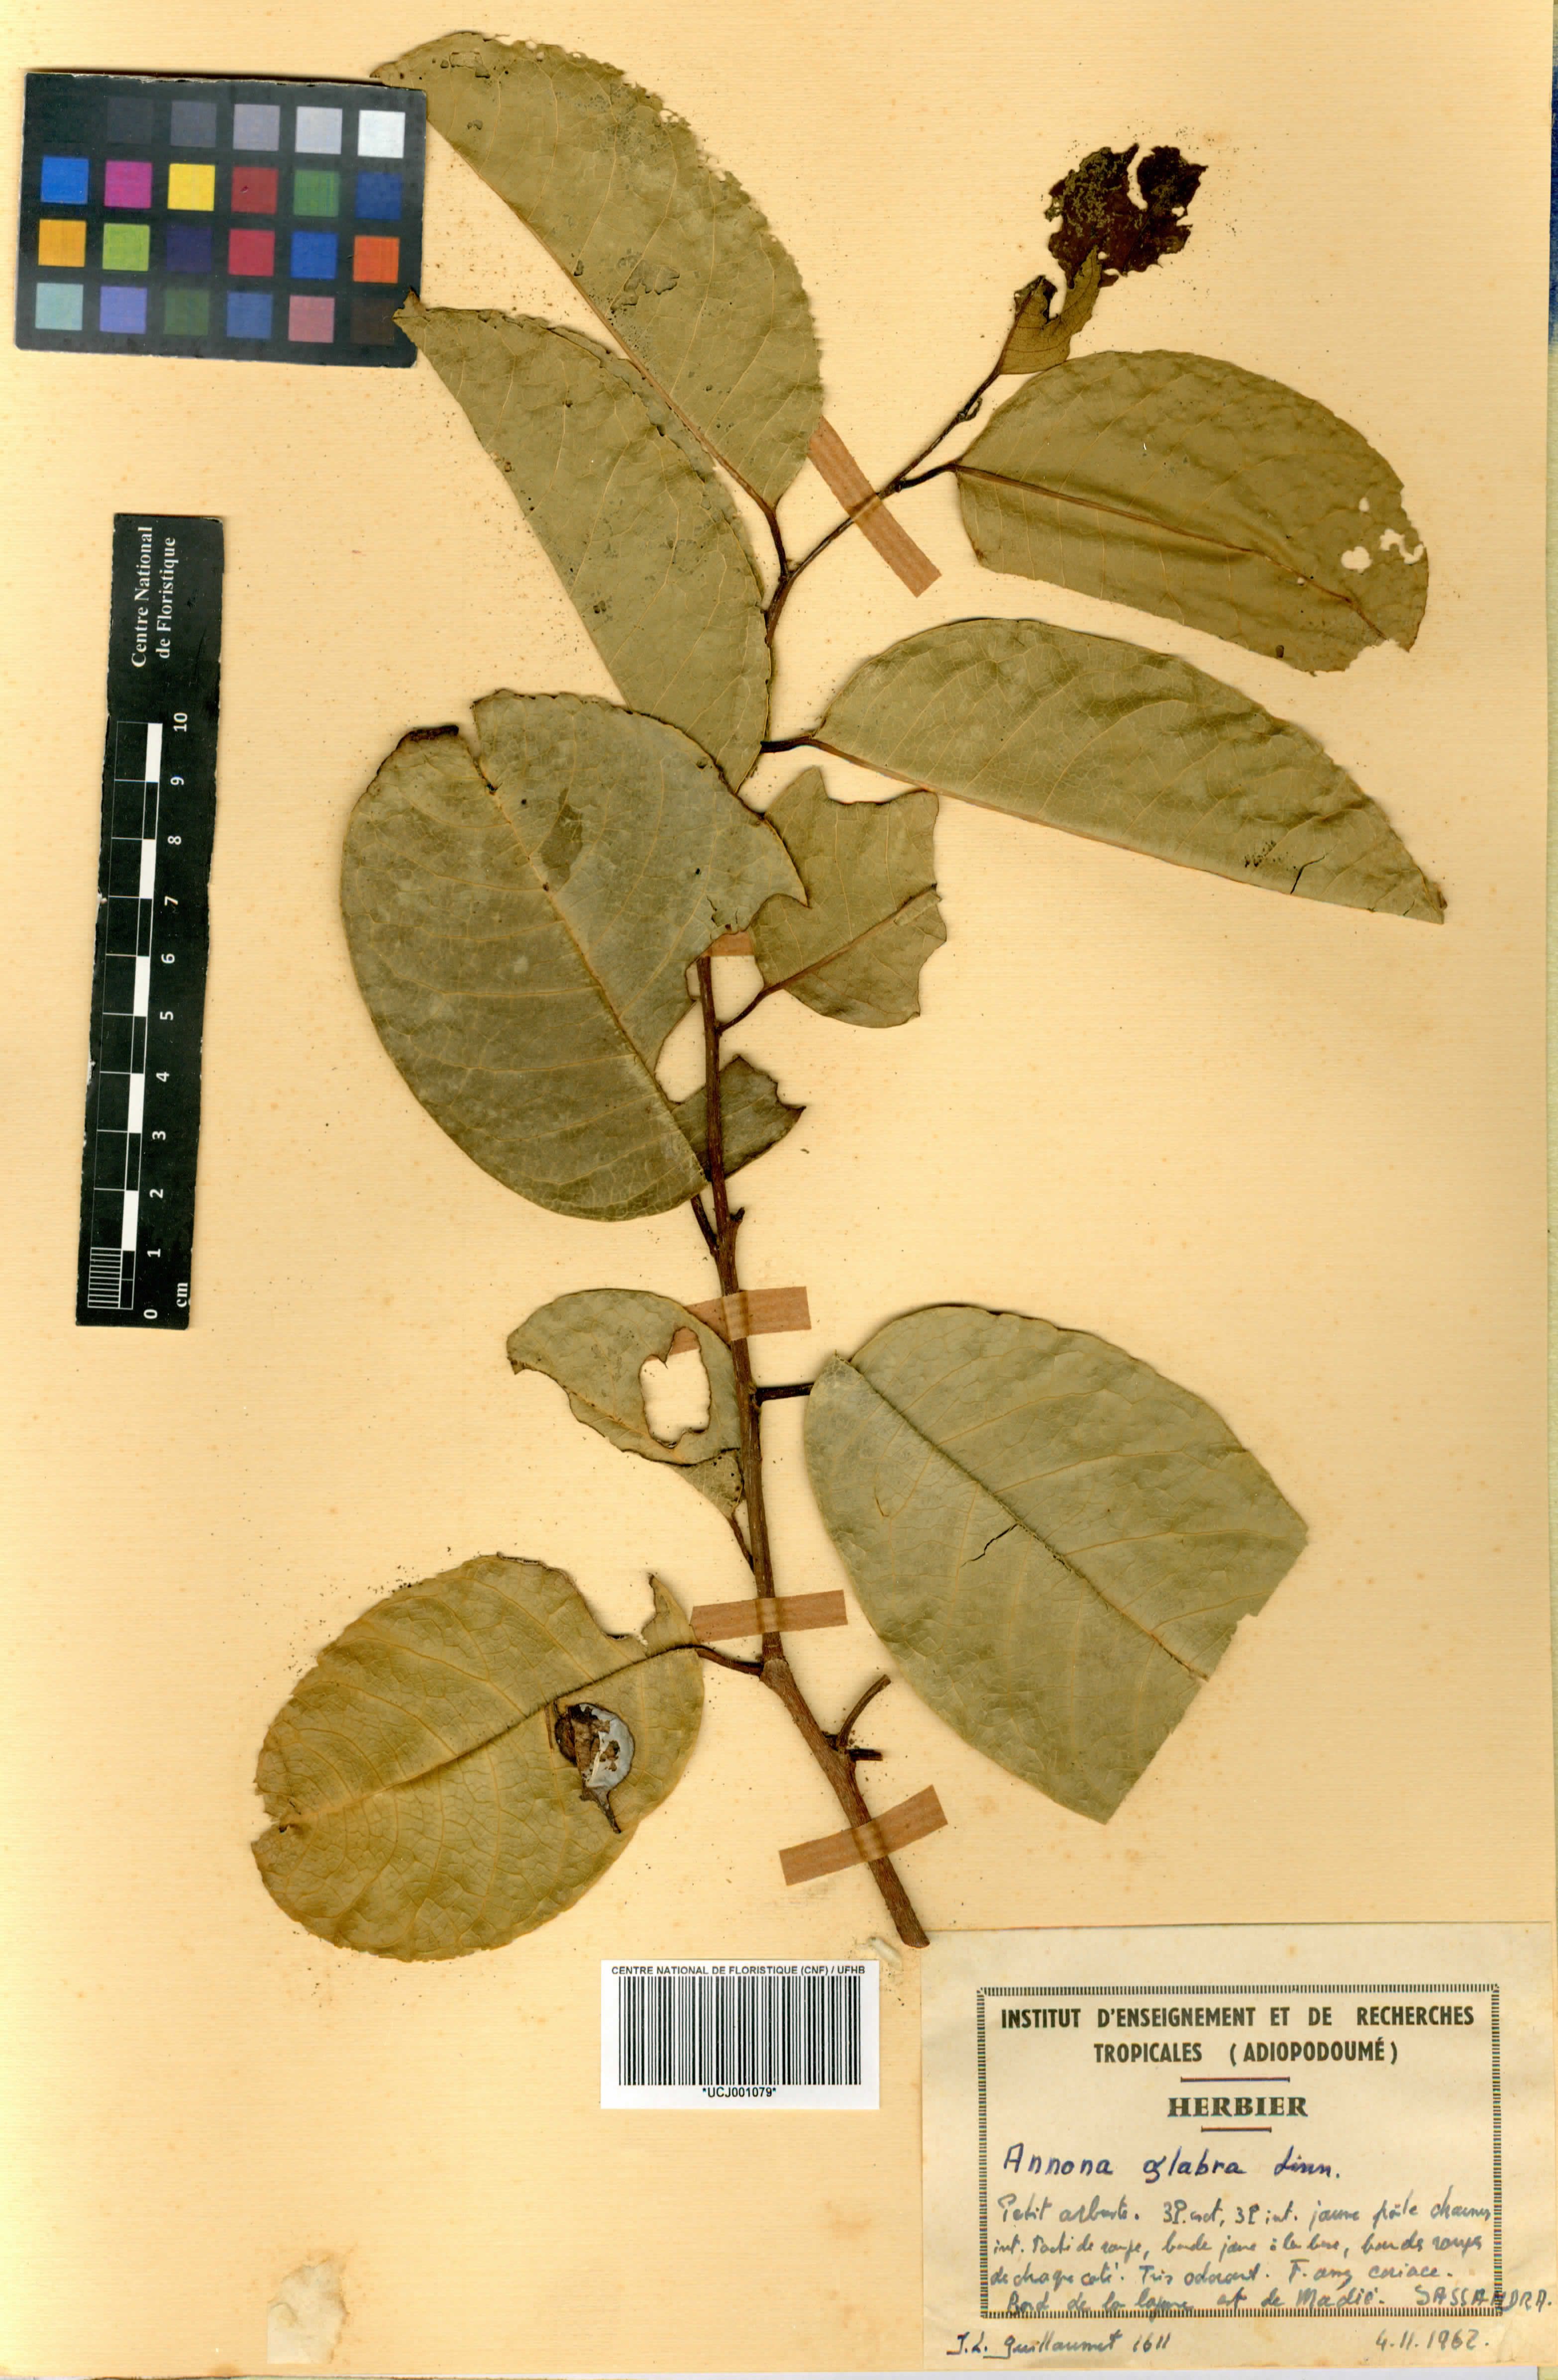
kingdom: Plantae
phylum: Tracheophyta
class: Magnoliopsida
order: Magnoliales
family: Annonaceae
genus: Annona
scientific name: Annona glabra
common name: Monkey apple
